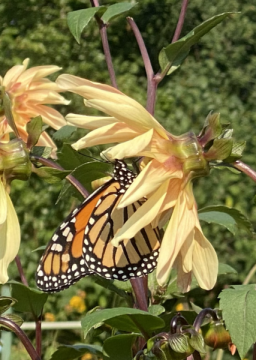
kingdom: Animalia
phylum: Arthropoda
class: Insecta
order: Lepidoptera
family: Nymphalidae
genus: Danaus
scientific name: Danaus plexippus
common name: Monarch
